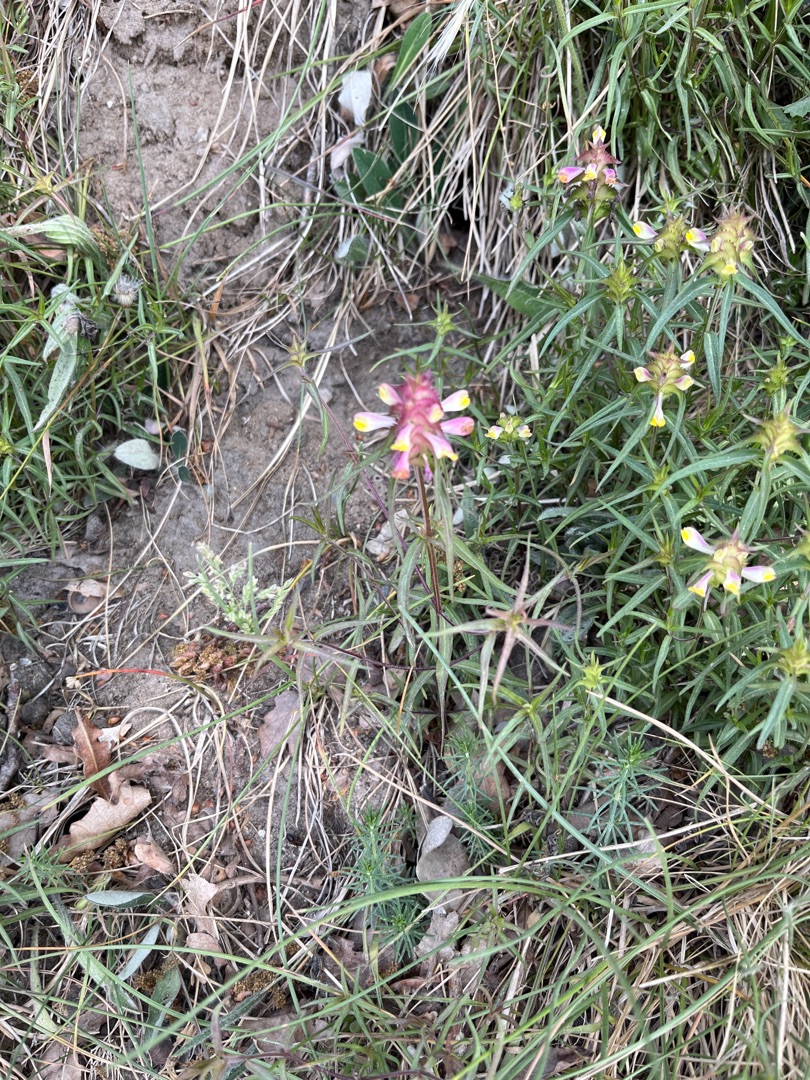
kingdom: Plantae
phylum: Tracheophyta
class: Magnoliopsida
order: Lamiales
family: Orobanchaceae
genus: Melampyrum
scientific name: Melampyrum cristatum
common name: Kantet kohvede
